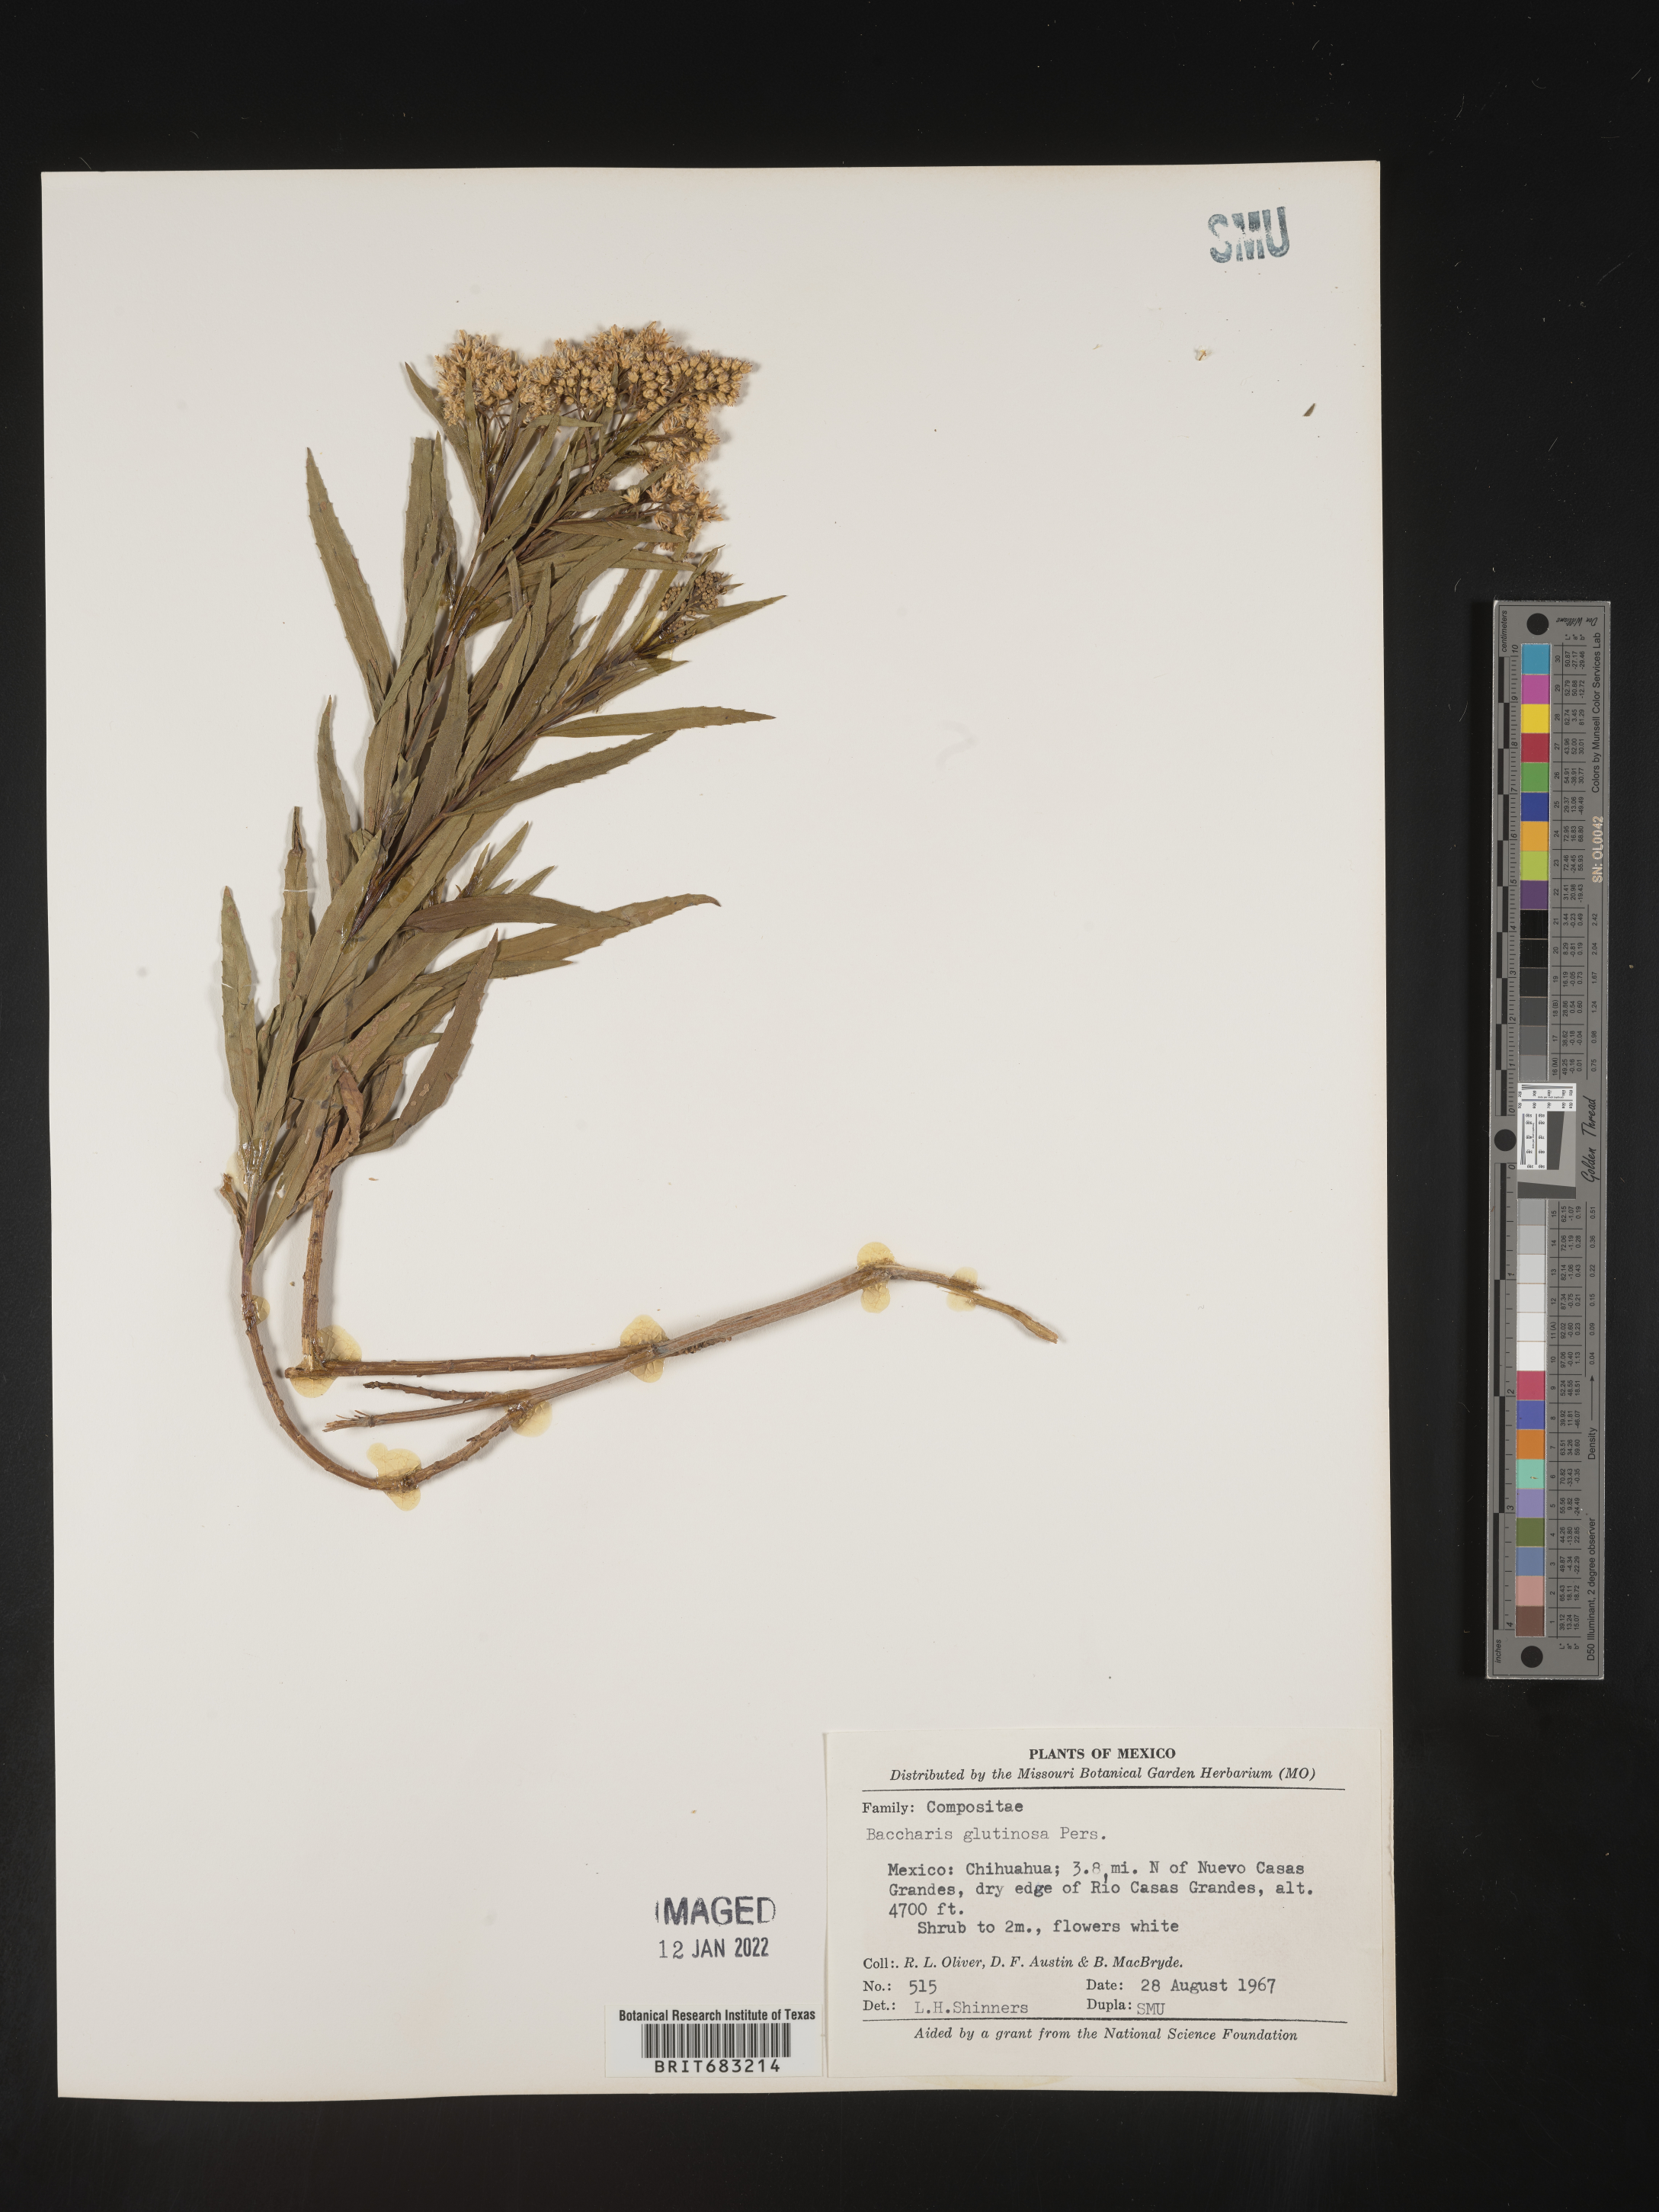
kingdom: Plantae
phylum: Tracheophyta
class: Magnoliopsida
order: Asterales
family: Asteraceae
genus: Baccharis
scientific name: Baccharis salicifolia
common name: Sticky baccharis
